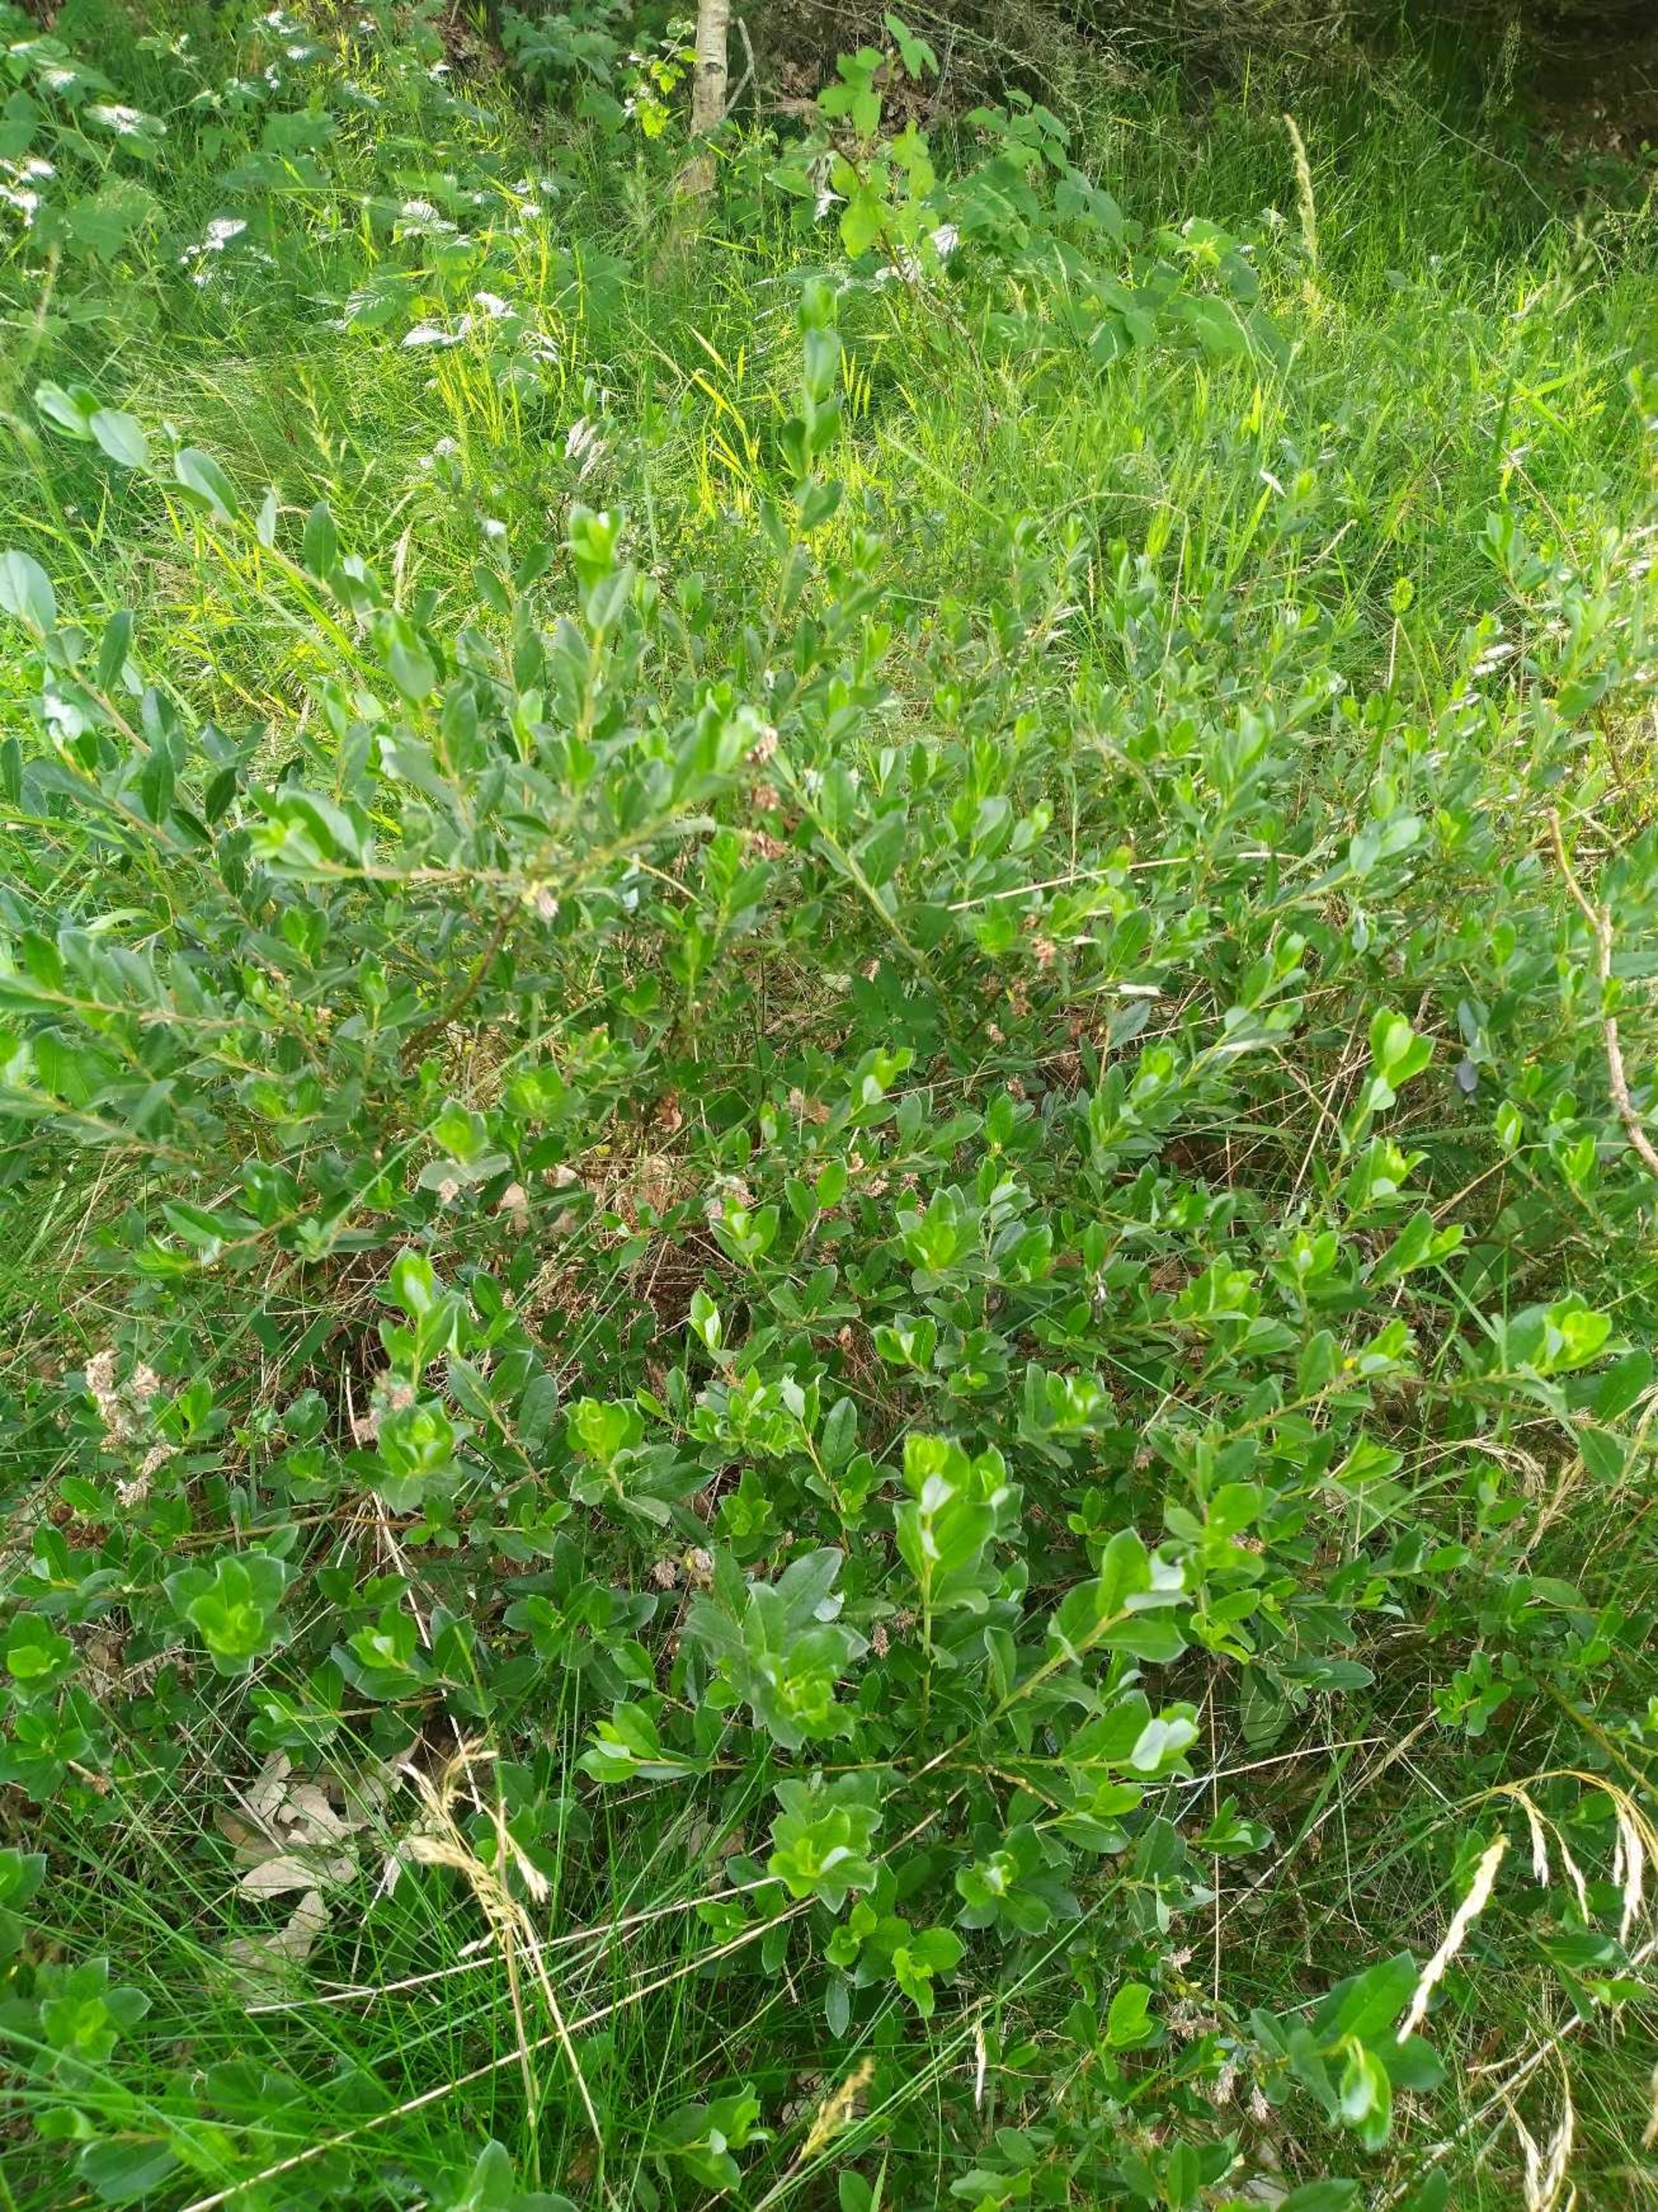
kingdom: Plantae
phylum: Tracheophyta
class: Magnoliopsida
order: Malpighiales
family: Salicaceae
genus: Salix
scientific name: Salix repens
